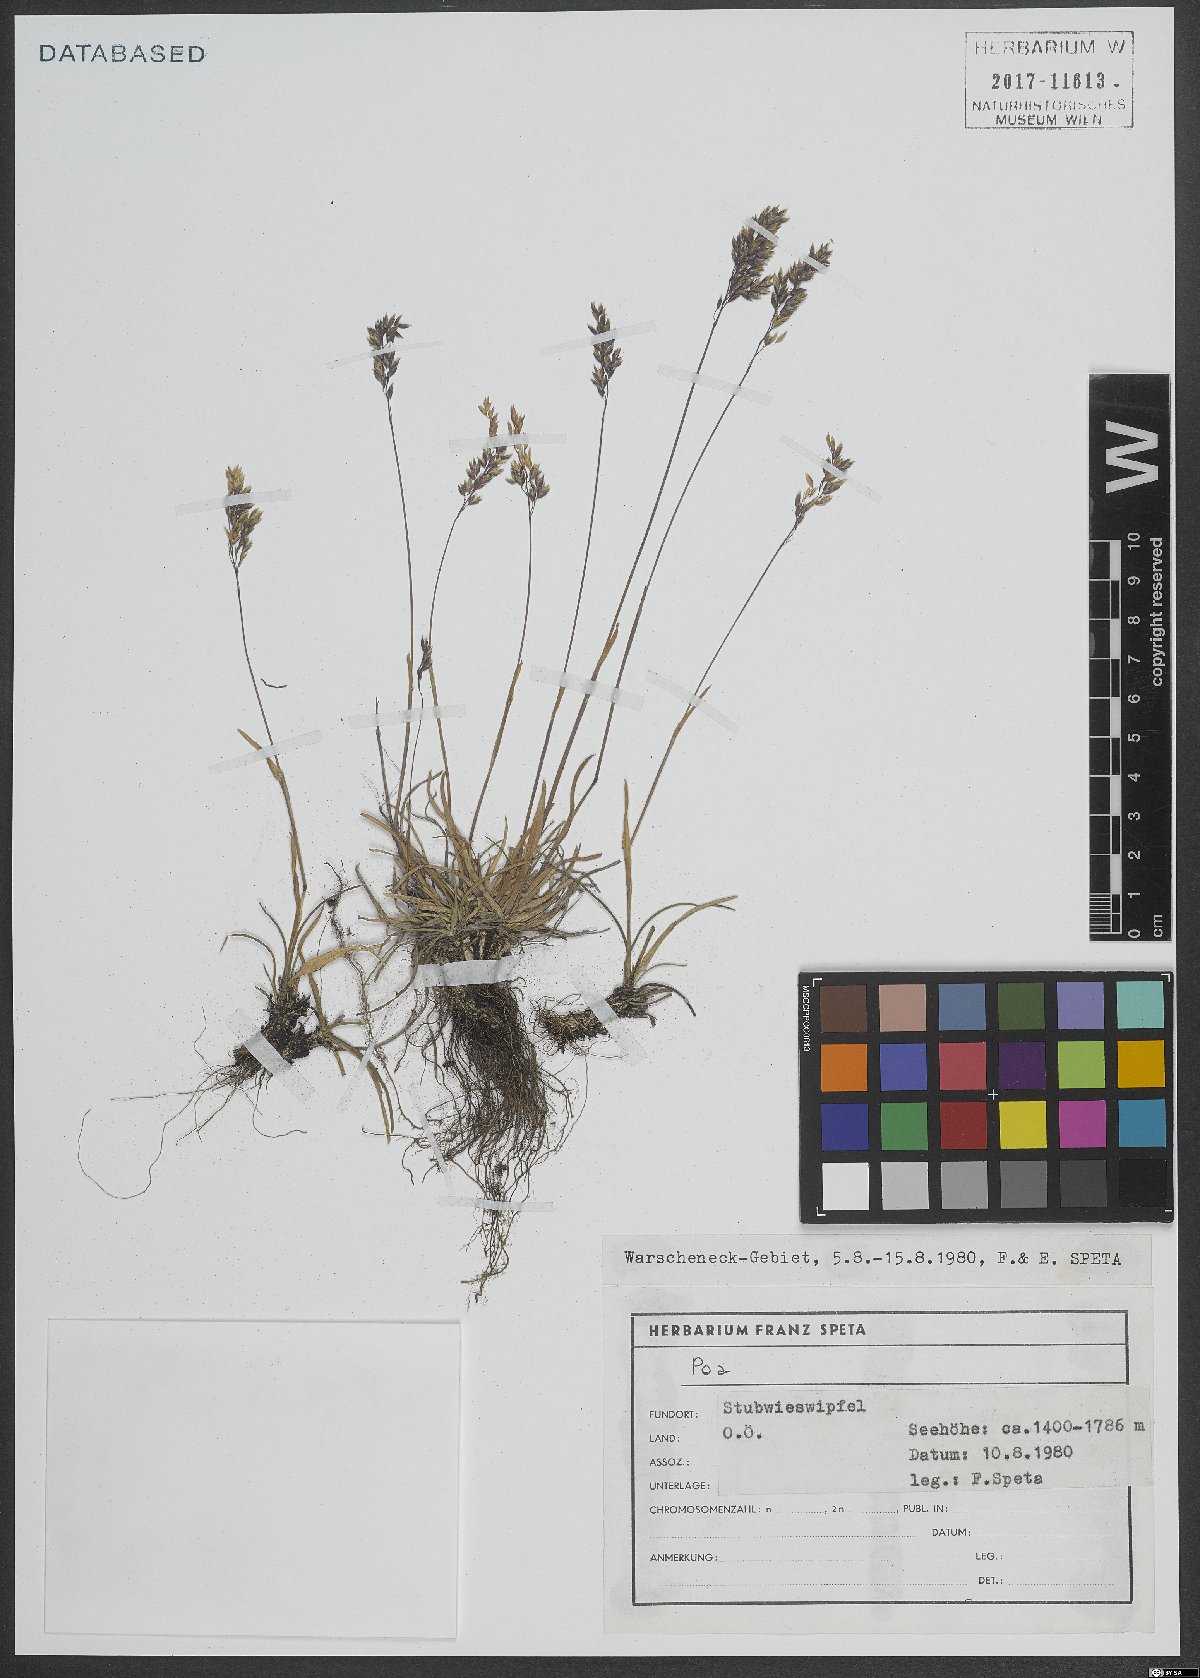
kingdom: Plantae
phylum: Tracheophyta
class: Liliopsida
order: Poales
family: Poaceae
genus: Poa
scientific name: Poa
